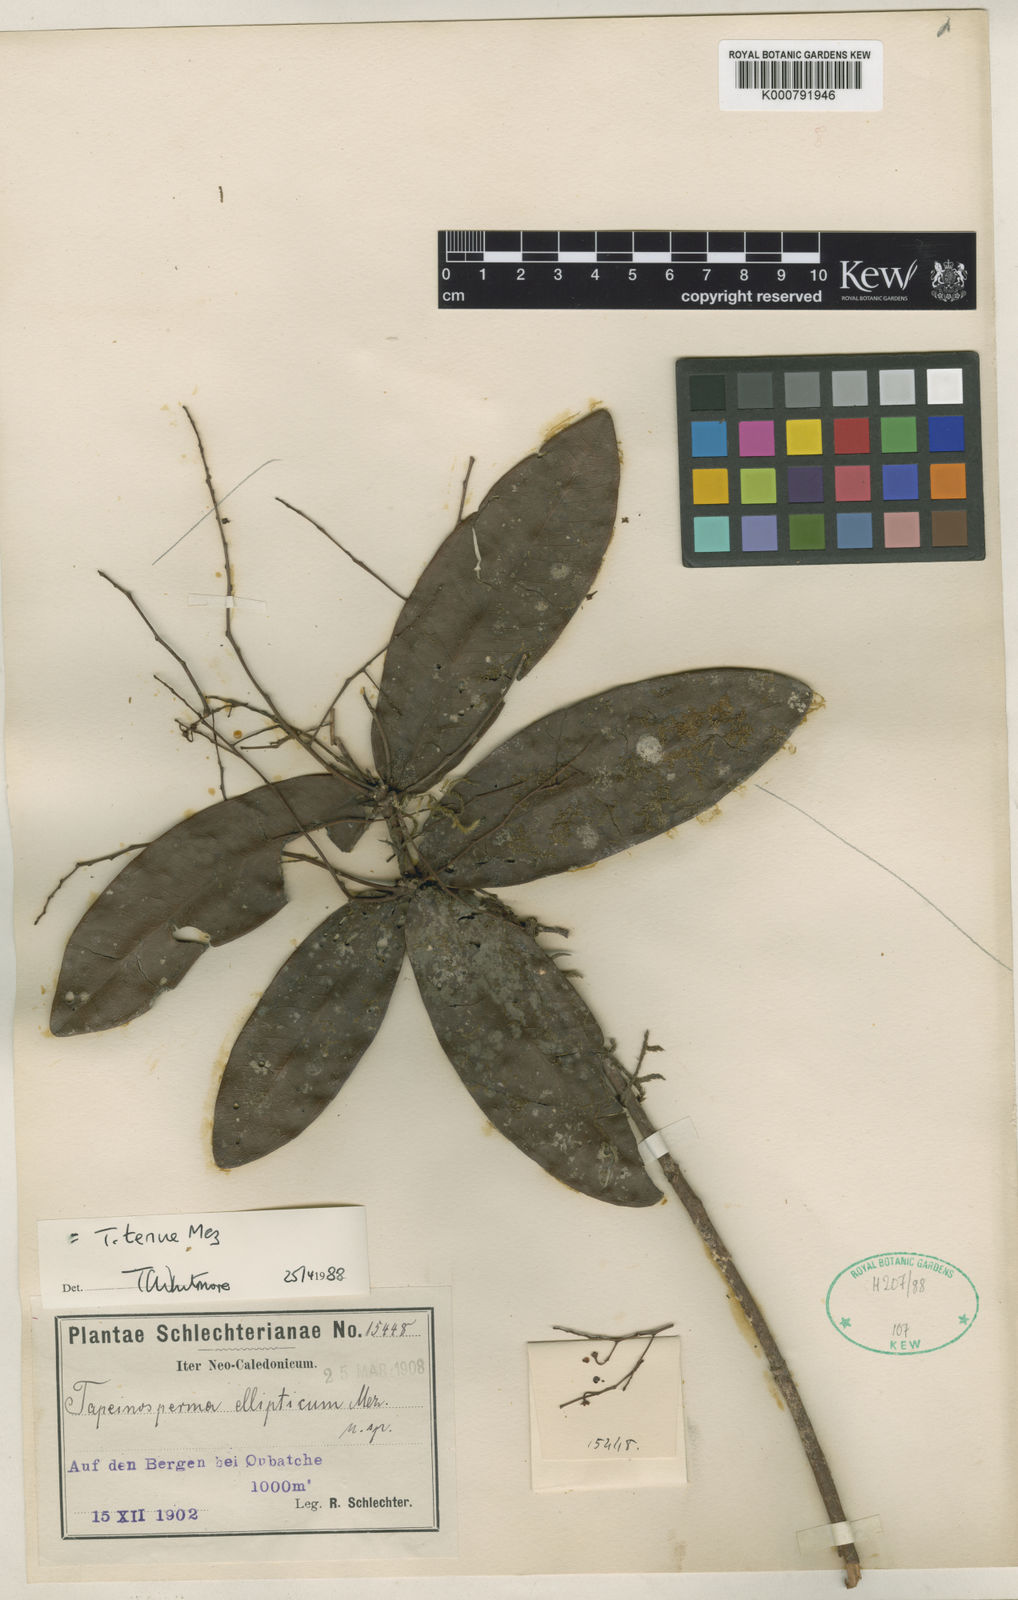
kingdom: Plantae
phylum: Tracheophyta
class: Magnoliopsida
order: Ericales
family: Primulaceae
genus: Tapeinosperma
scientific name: Tapeinosperma tenue
